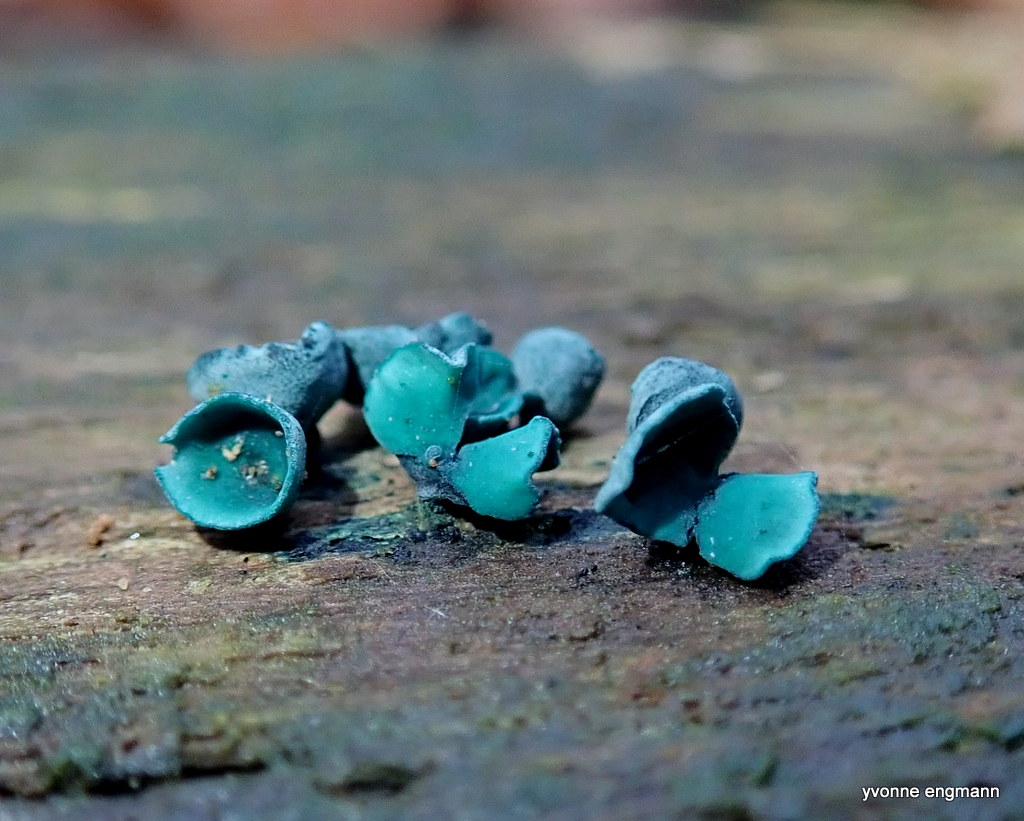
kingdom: Fungi
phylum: Ascomycota
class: Leotiomycetes
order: Helotiales
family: Chlorociboriaceae
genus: Chlorociboria
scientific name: Chlorociboria aeruginascens
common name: almindelig grønskive
